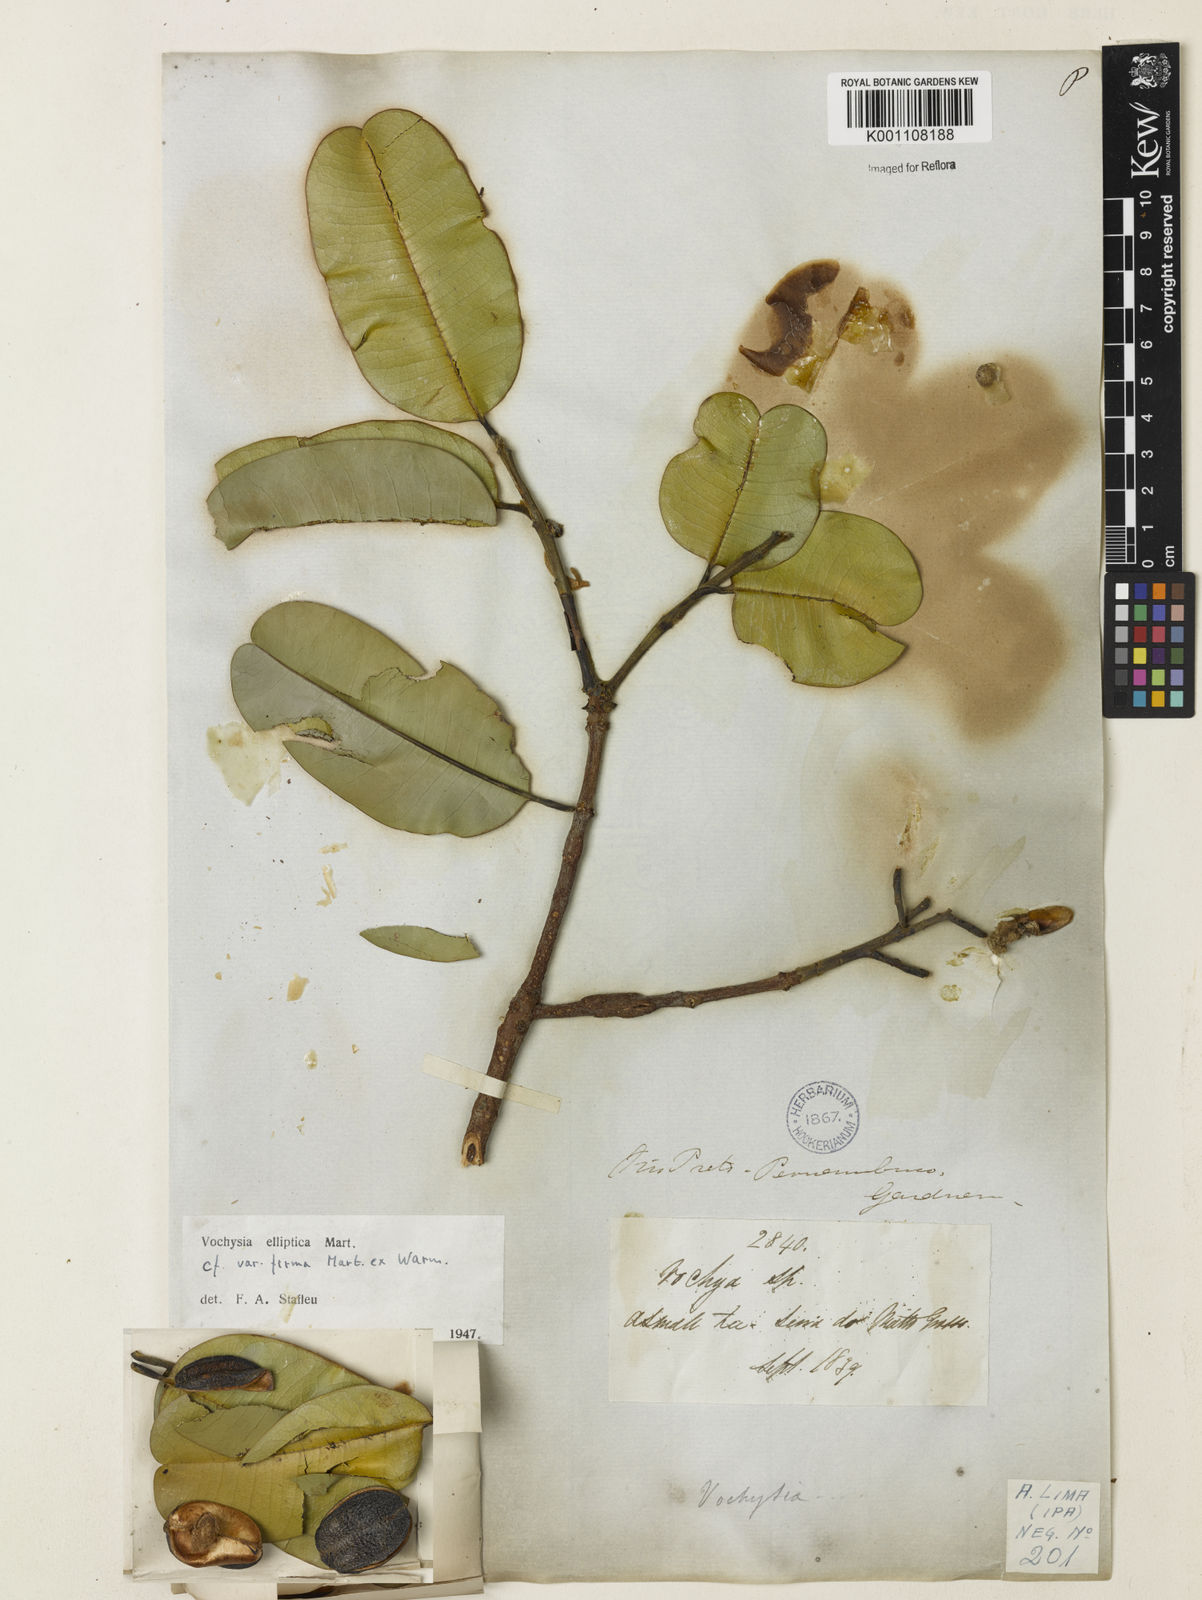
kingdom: Plantae
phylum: Tracheophyta
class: Magnoliopsida
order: Myrtales
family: Vochysiaceae
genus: Vochysia
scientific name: Vochysia elliptica
